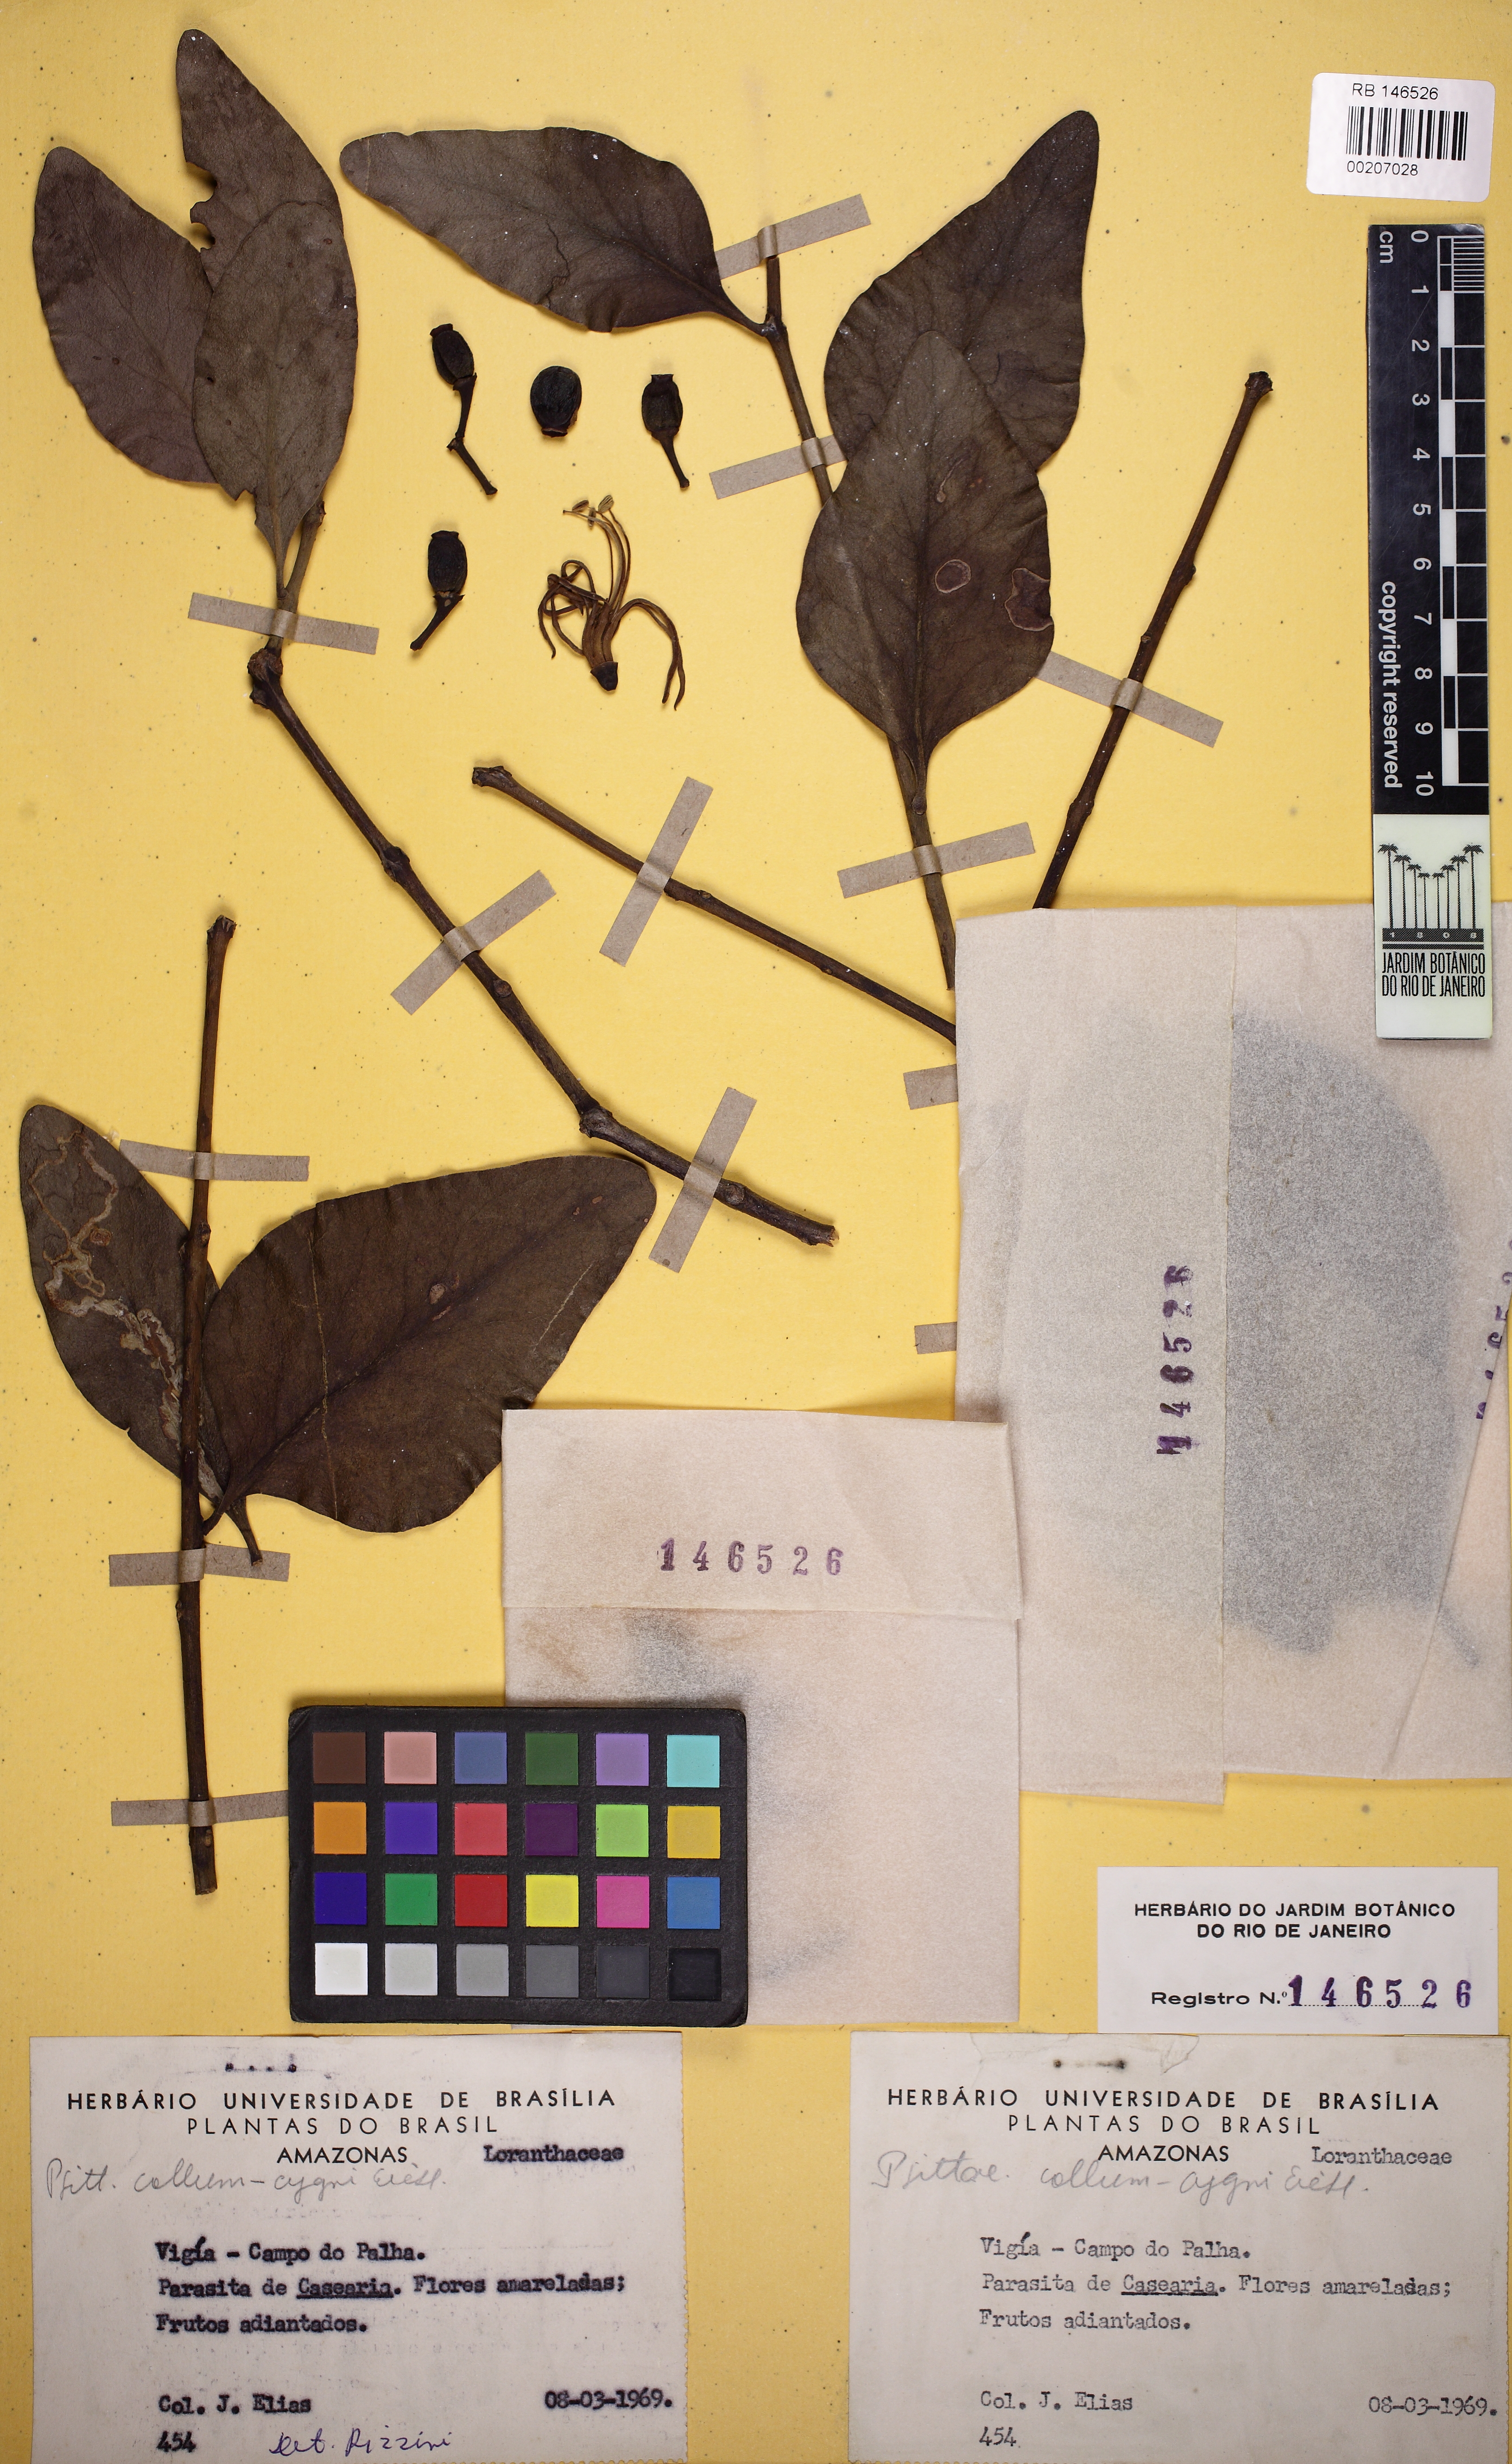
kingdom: Plantae
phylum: Tracheophyta
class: Magnoliopsida
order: Santalales
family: Loranthaceae
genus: Psittacanthus
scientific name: Psittacanthus eucalyptifolius
